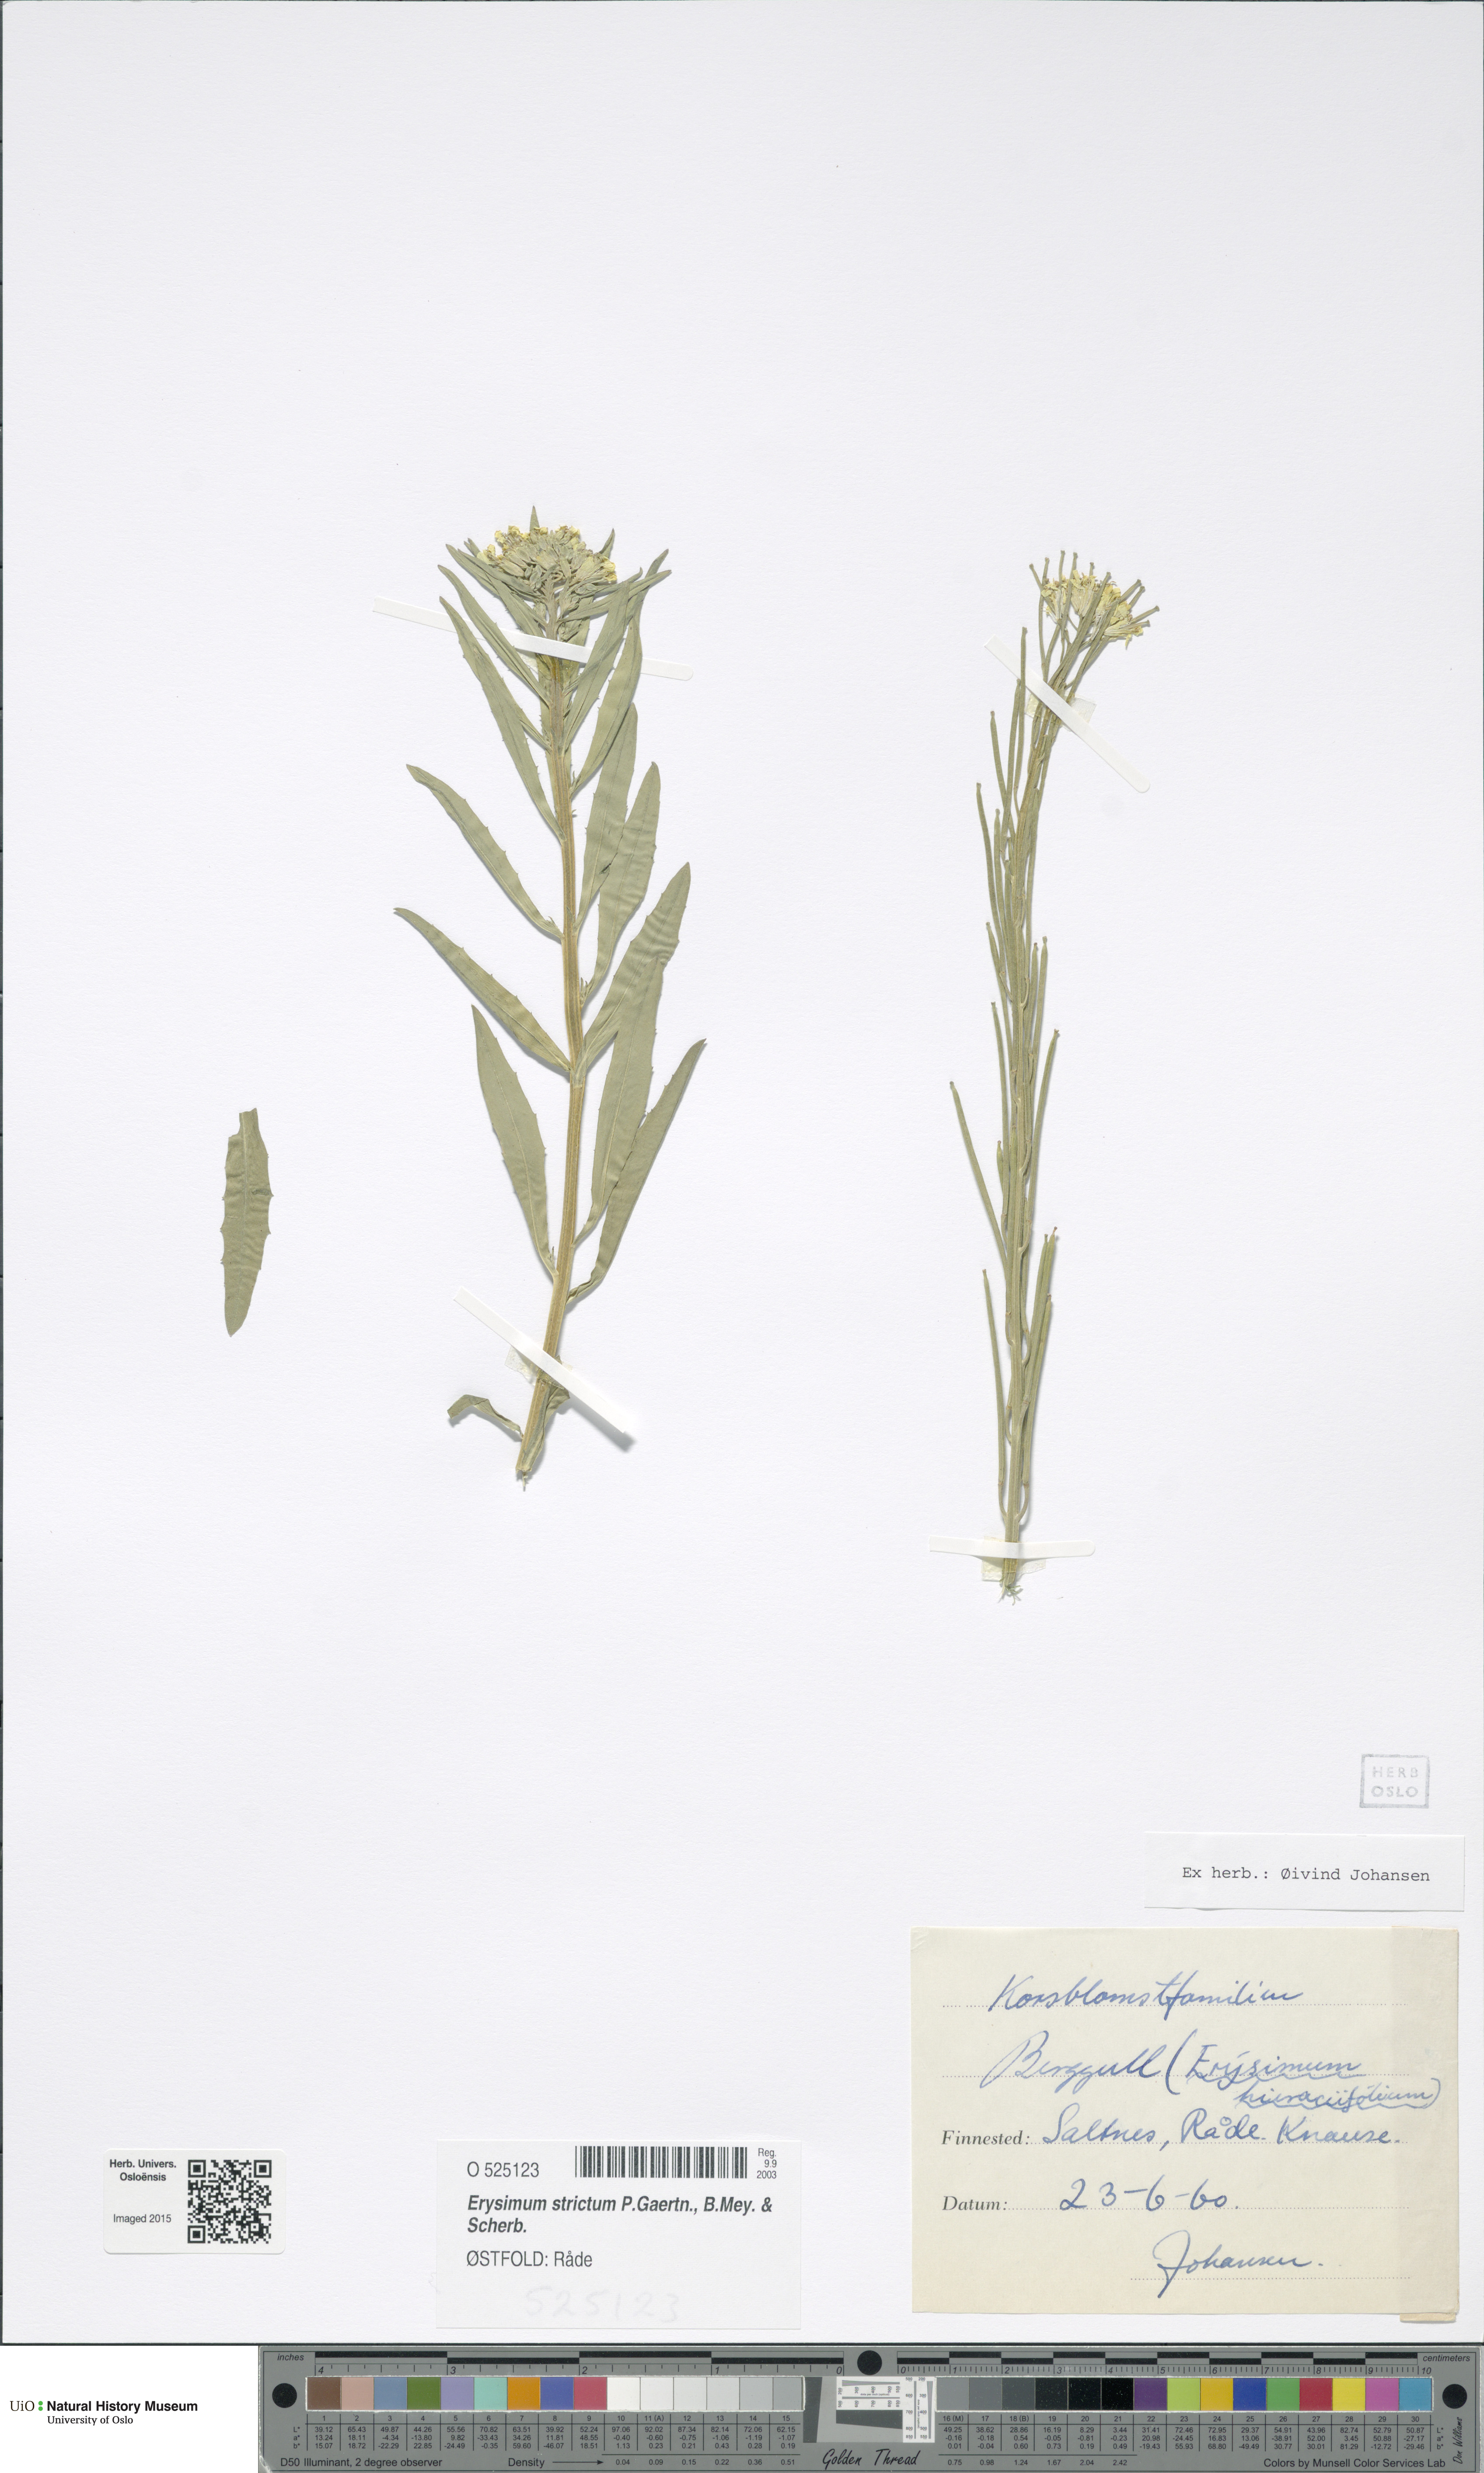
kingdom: Plantae
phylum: Tracheophyta
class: Magnoliopsida
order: Brassicales
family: Brassicaceae
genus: Erysimum
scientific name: Erysimum virgatum
